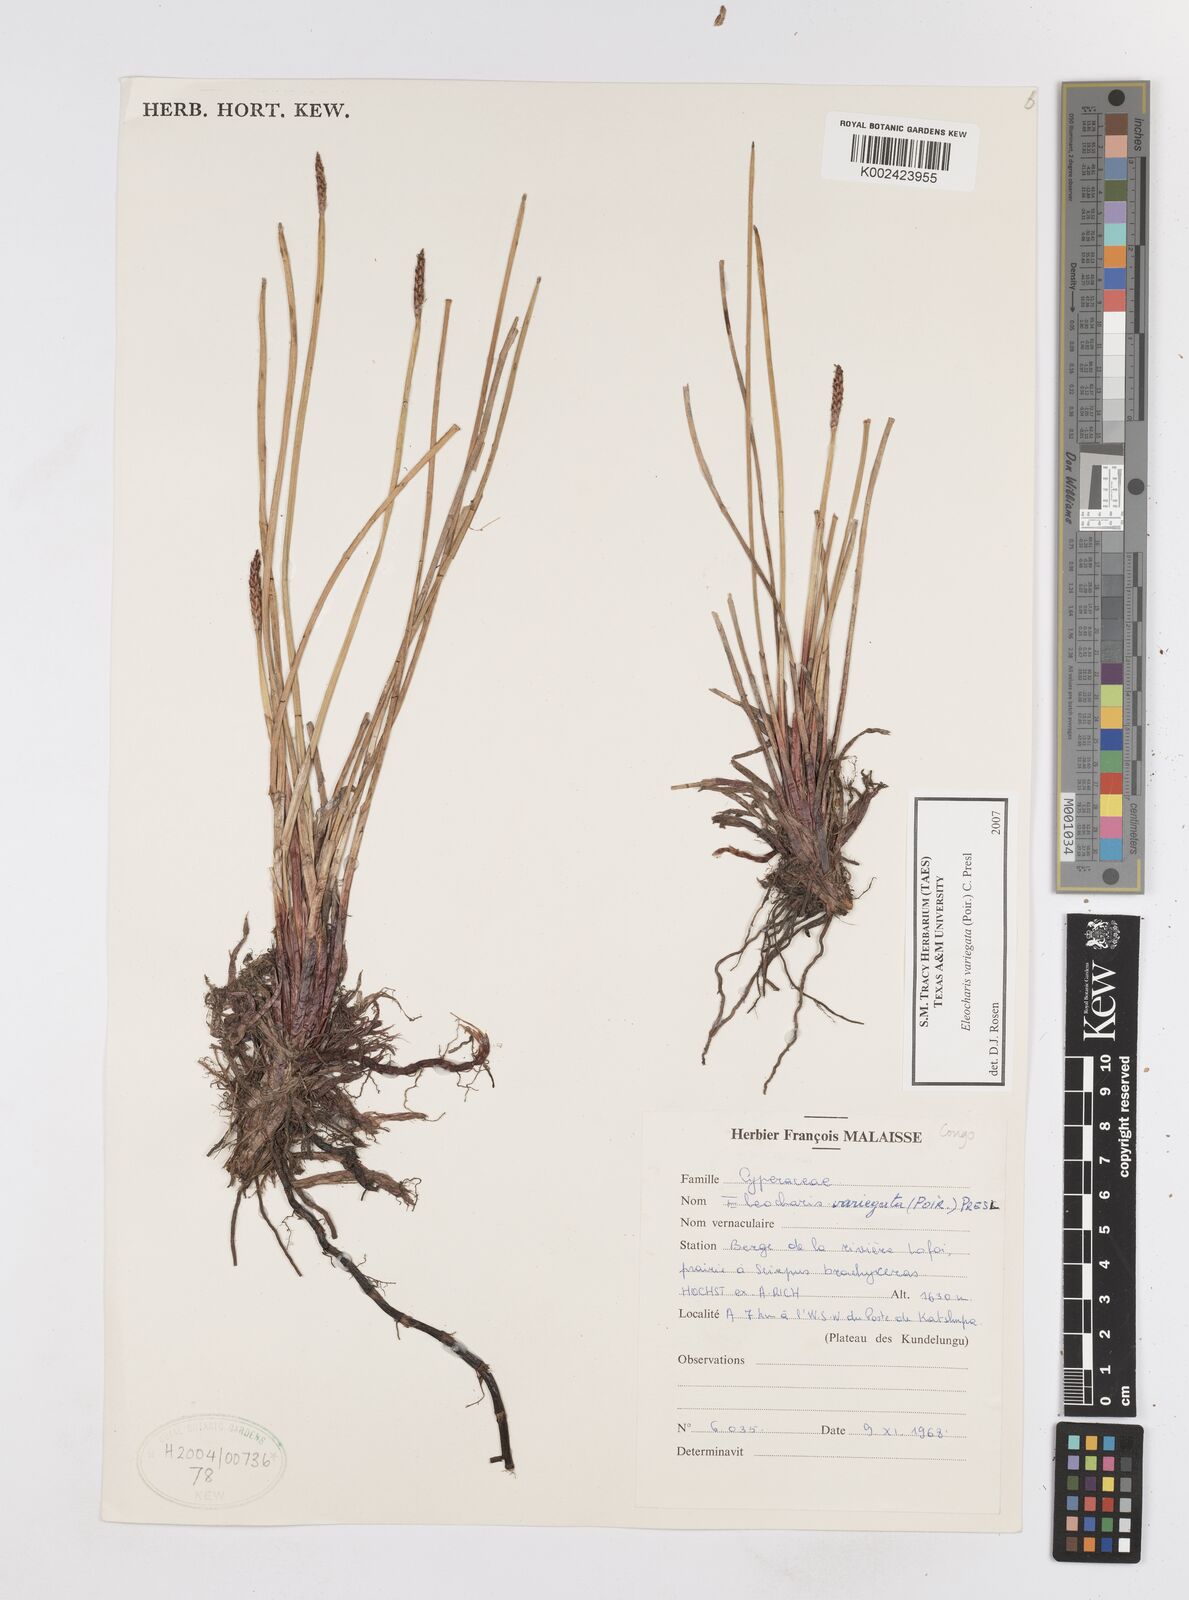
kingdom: Plantae
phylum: Tracheophyta
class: Liliopsida
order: Poales
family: Cyperaceae
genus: Eleocharis
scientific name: Eleocharis variegata
